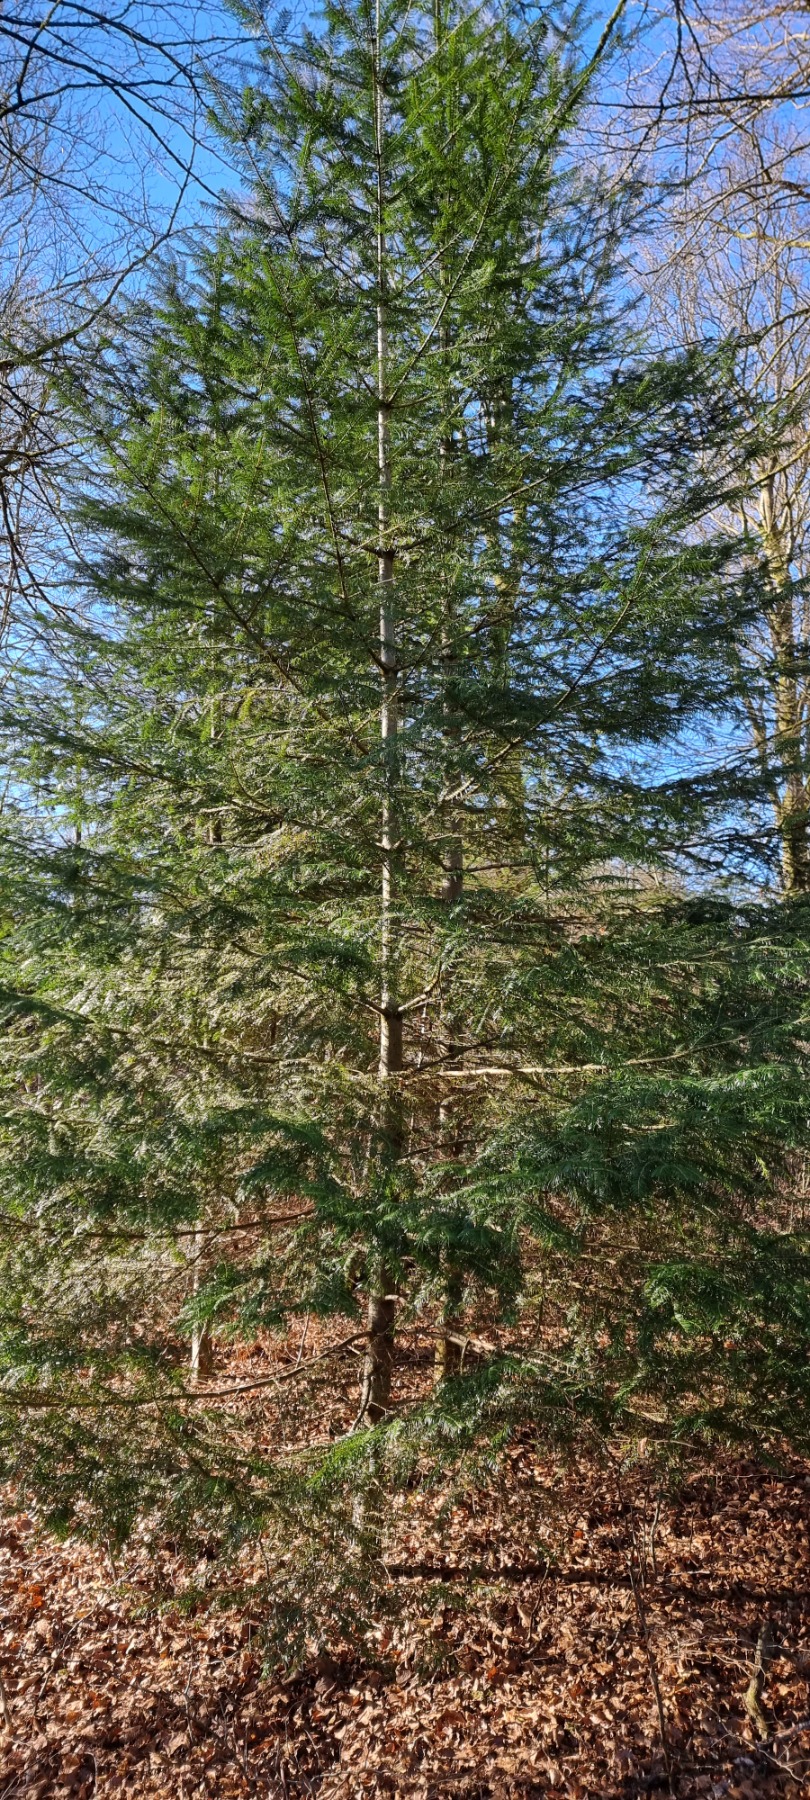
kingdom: Plantae
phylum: Tracheophyta
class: Pinopsida
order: Pinales
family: Pinaceae
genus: Abies
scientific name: Abies alba
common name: Almindelig ædelgran
